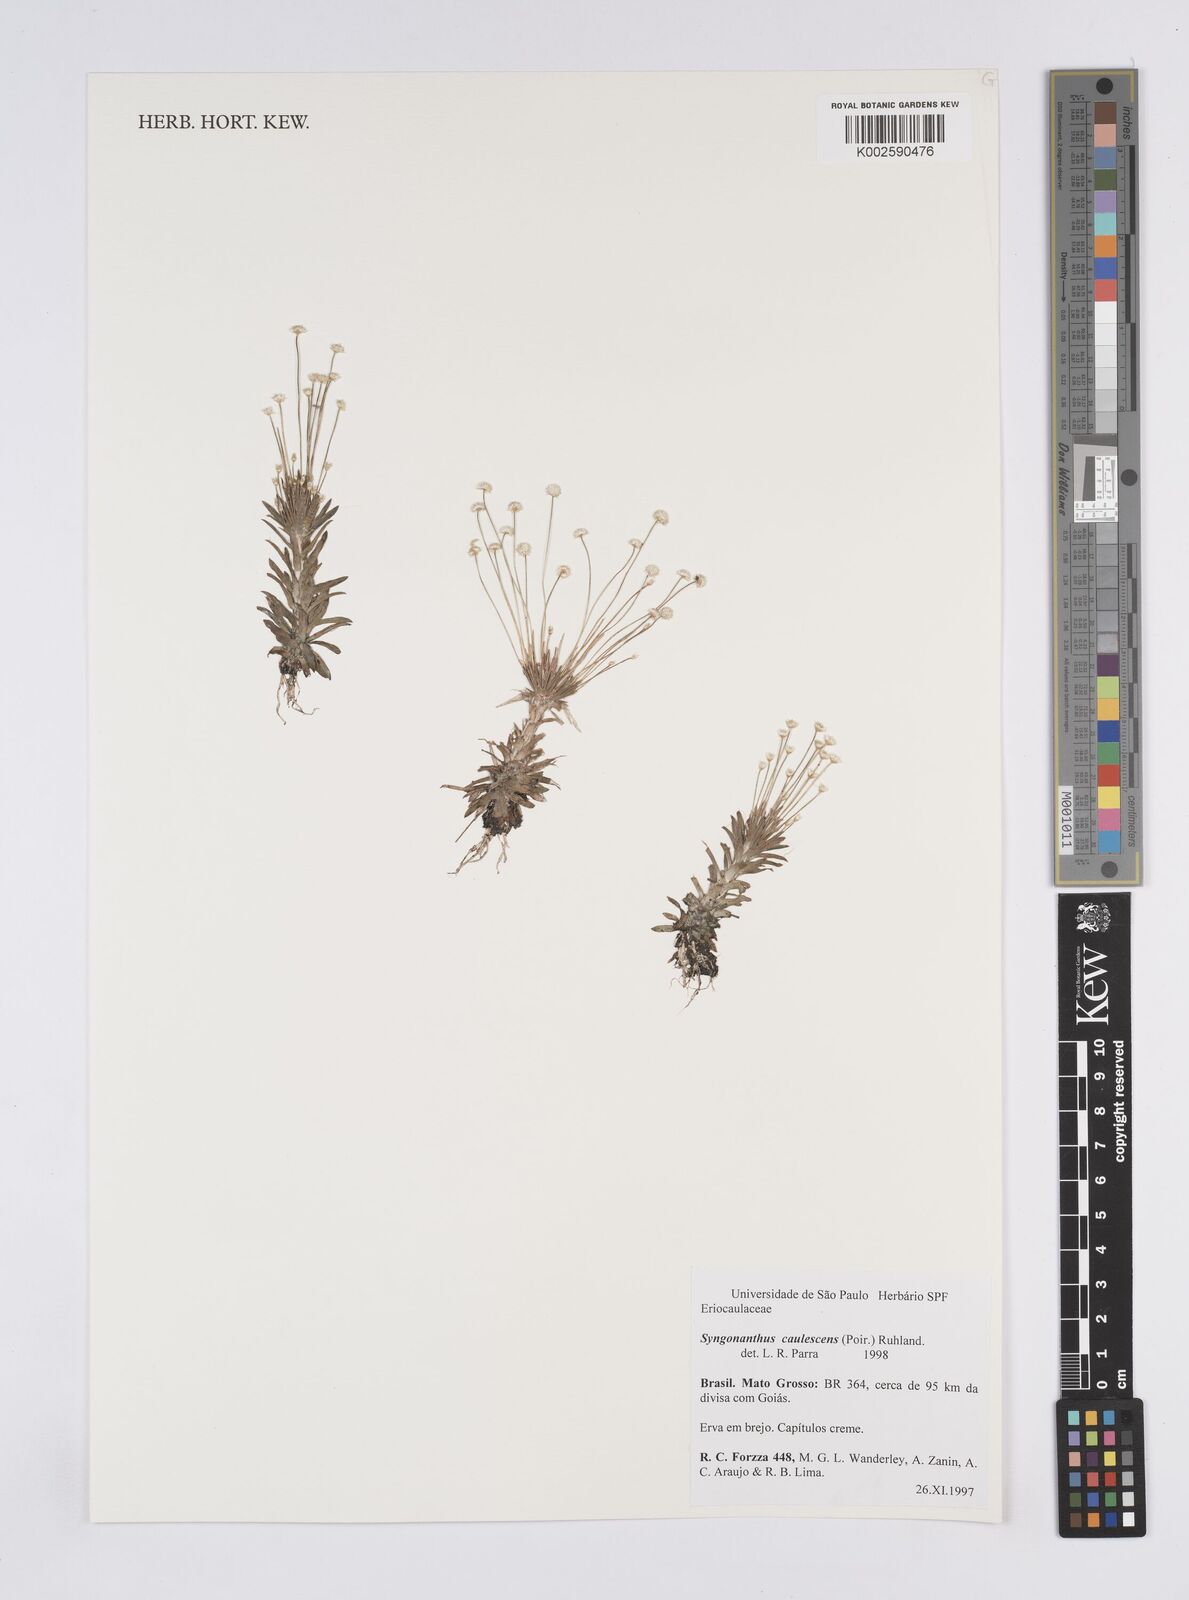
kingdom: Plantae
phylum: Tracheophyta
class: Liliopsida
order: Poales
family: Eriocaulaceae
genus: Syngonanthus
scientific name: Syngonanthus caulescens
